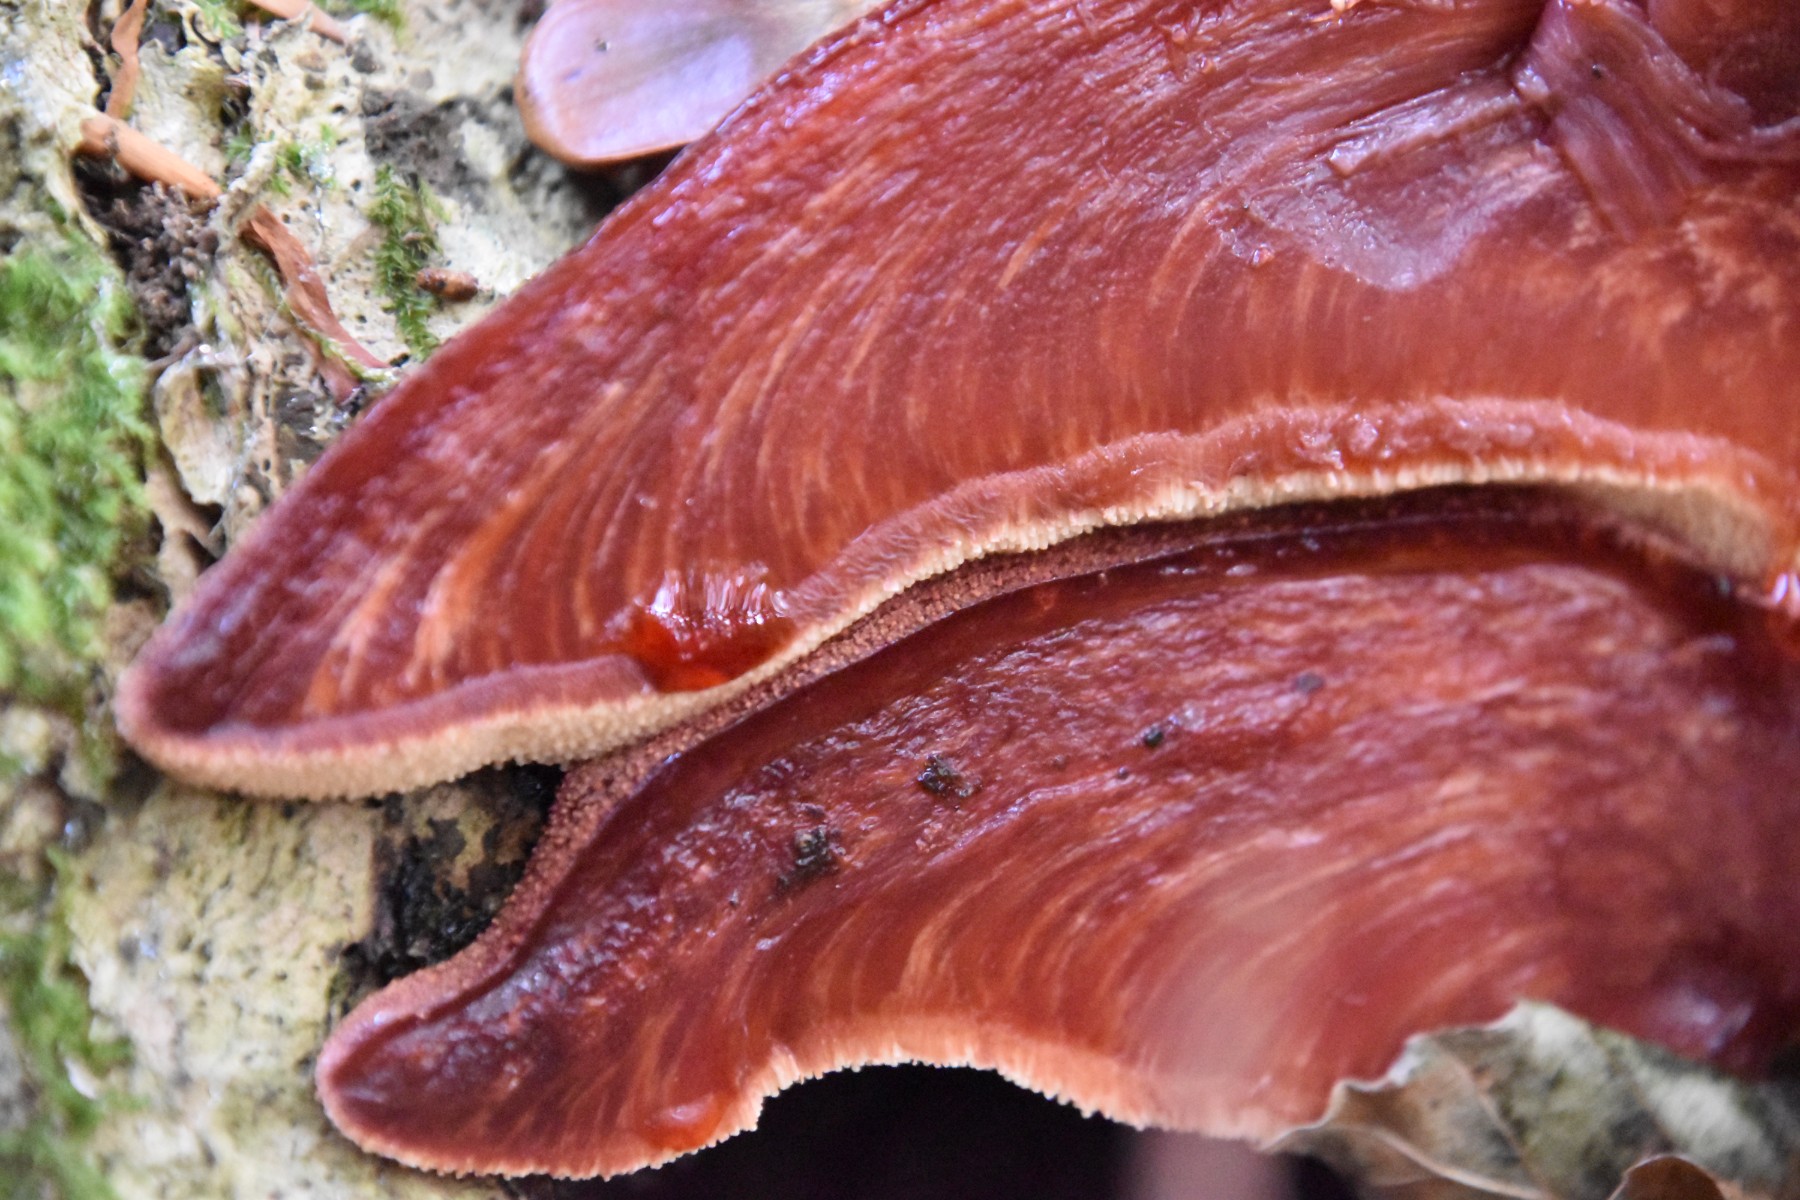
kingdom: Fungi
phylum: Basidiomycota
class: Agaricomycetes
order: Agaricales
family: Fistulinaceae
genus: Fistulina
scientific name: Fistulina hepatica
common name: oksetunge
